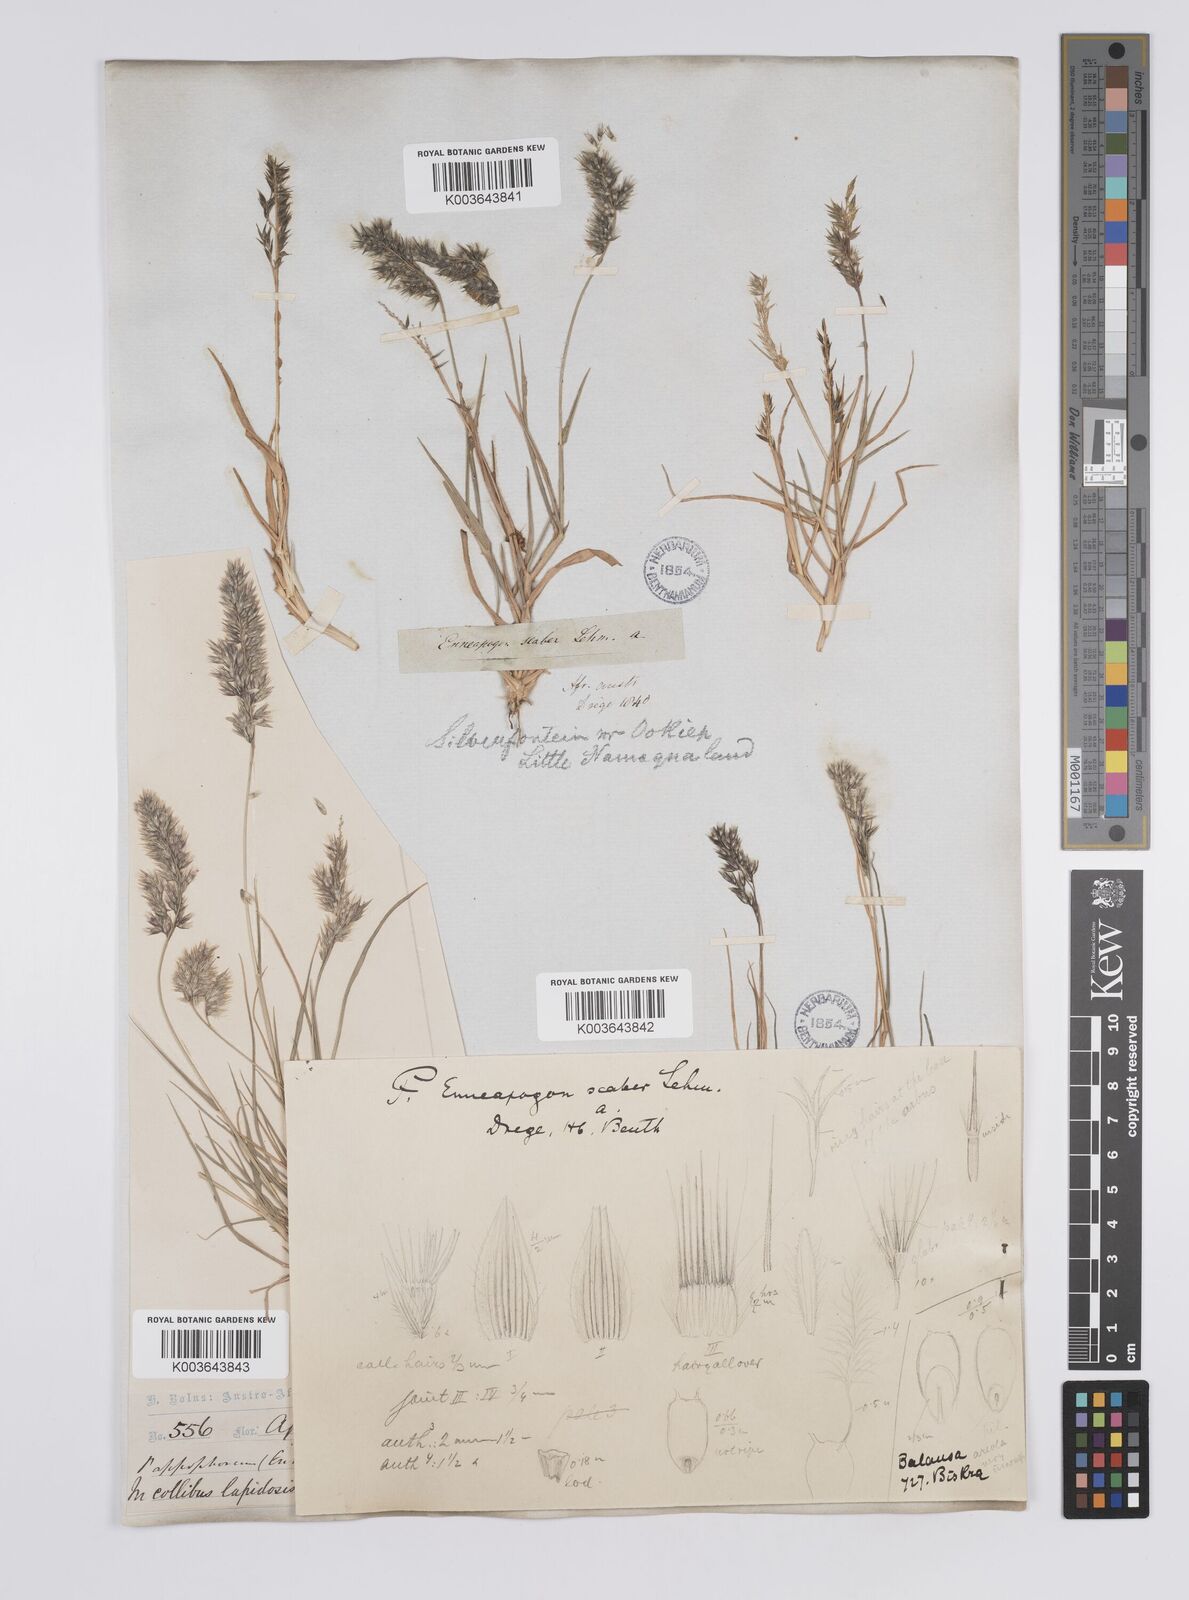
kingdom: Plantae
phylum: Tracheophyta
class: Liliopsida
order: Poales
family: Poaceae
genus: Enneapogon
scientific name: Enneapogon scaber
